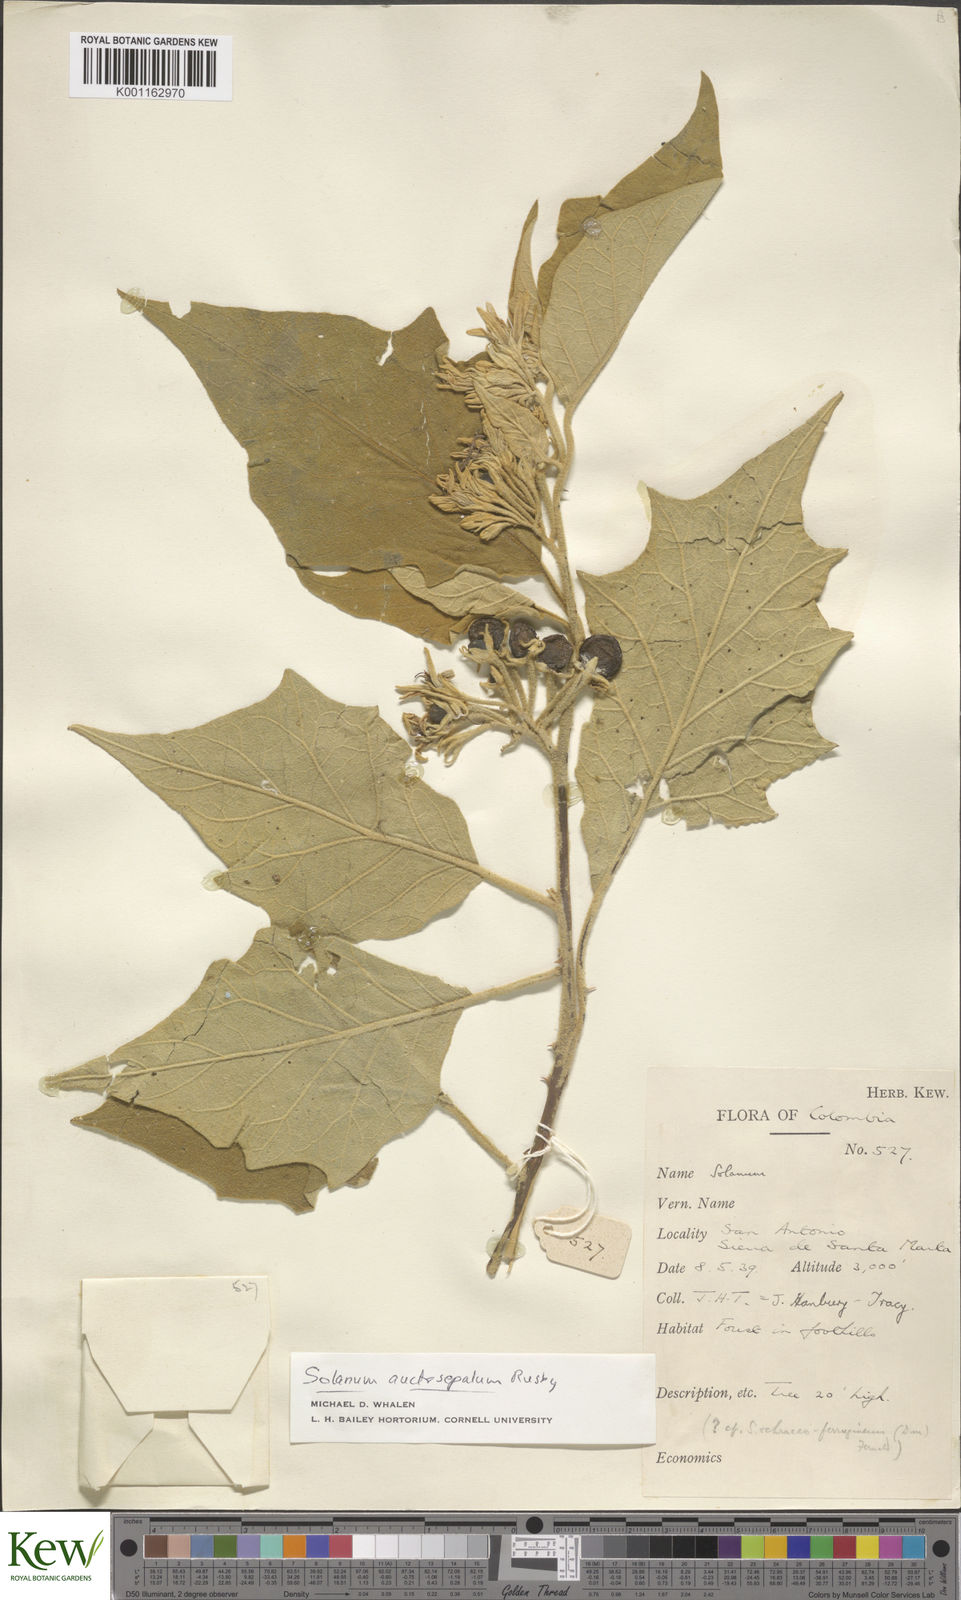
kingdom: Plantae
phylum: Tracheophyta
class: Magnoliopsida
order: Solanales
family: Solanaceae
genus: Solanum
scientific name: Solanum stellatiglandulosum
